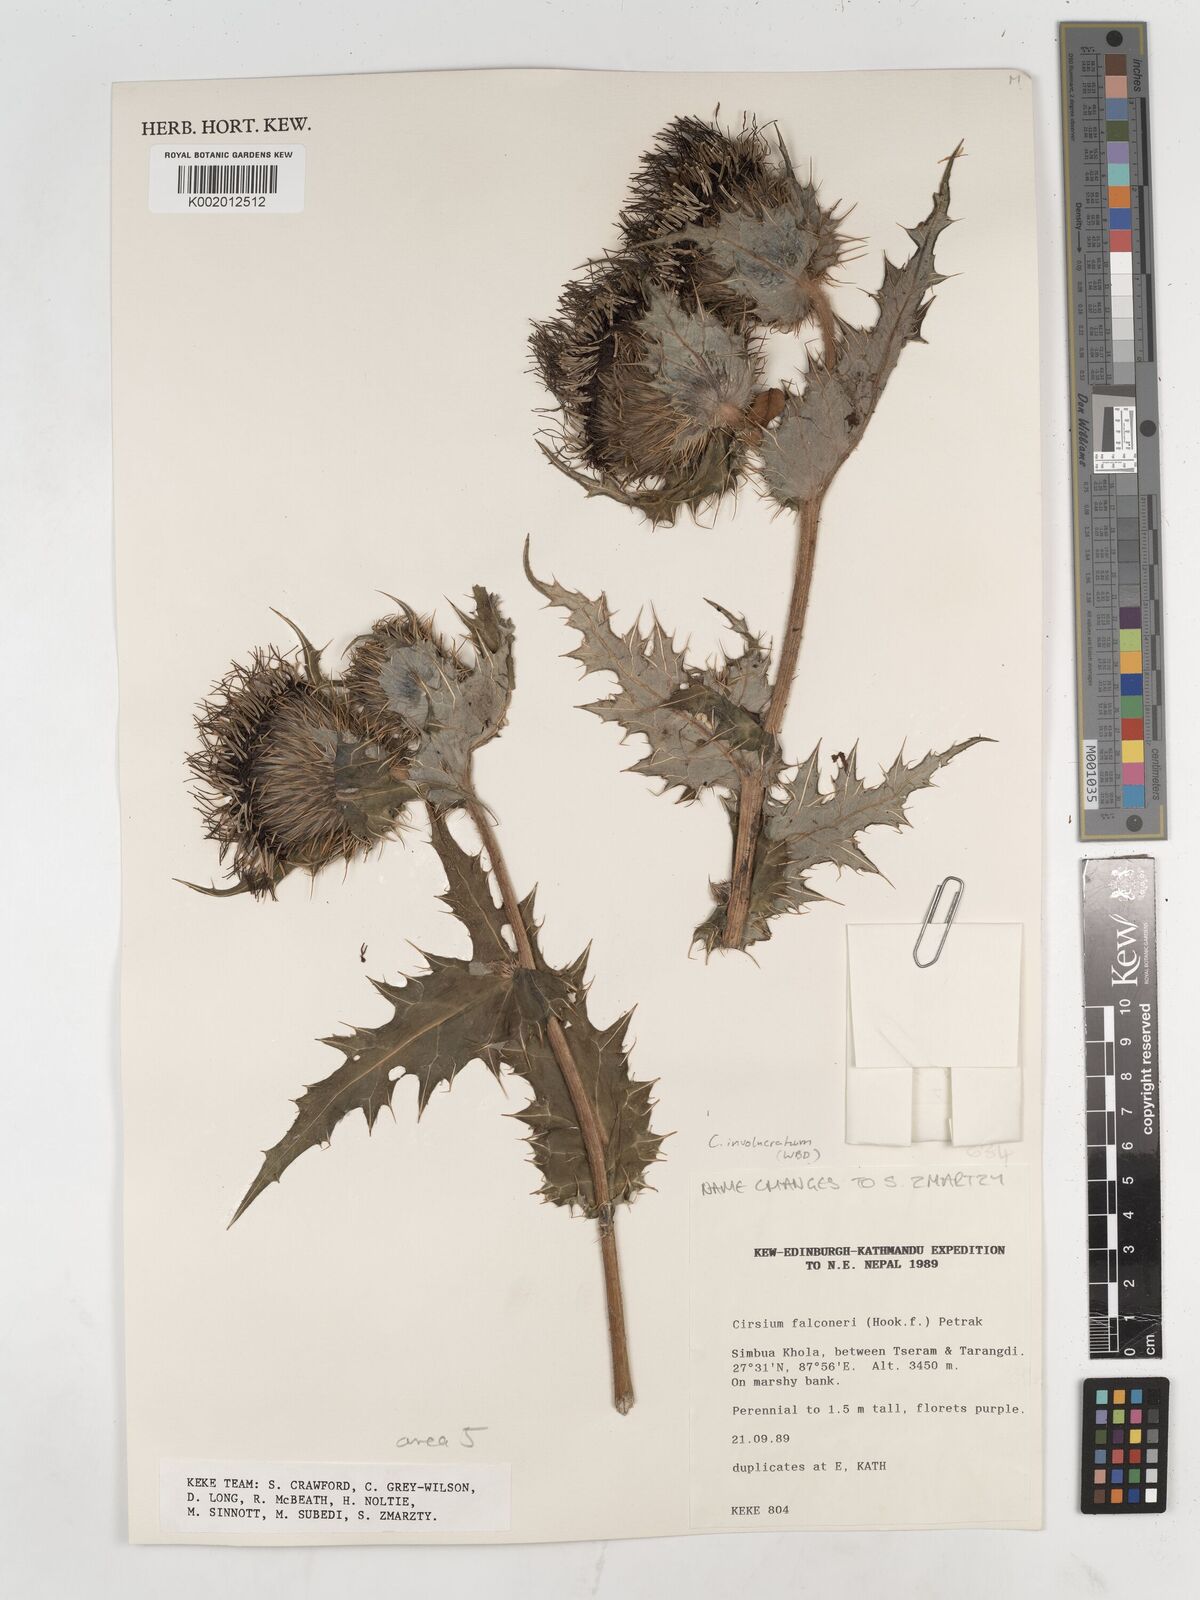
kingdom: Plantae
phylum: Tracheophyta
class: Magnoliopsida
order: Asterales
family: Asteraceae
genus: Cirsium
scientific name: Cirsium falconeri
